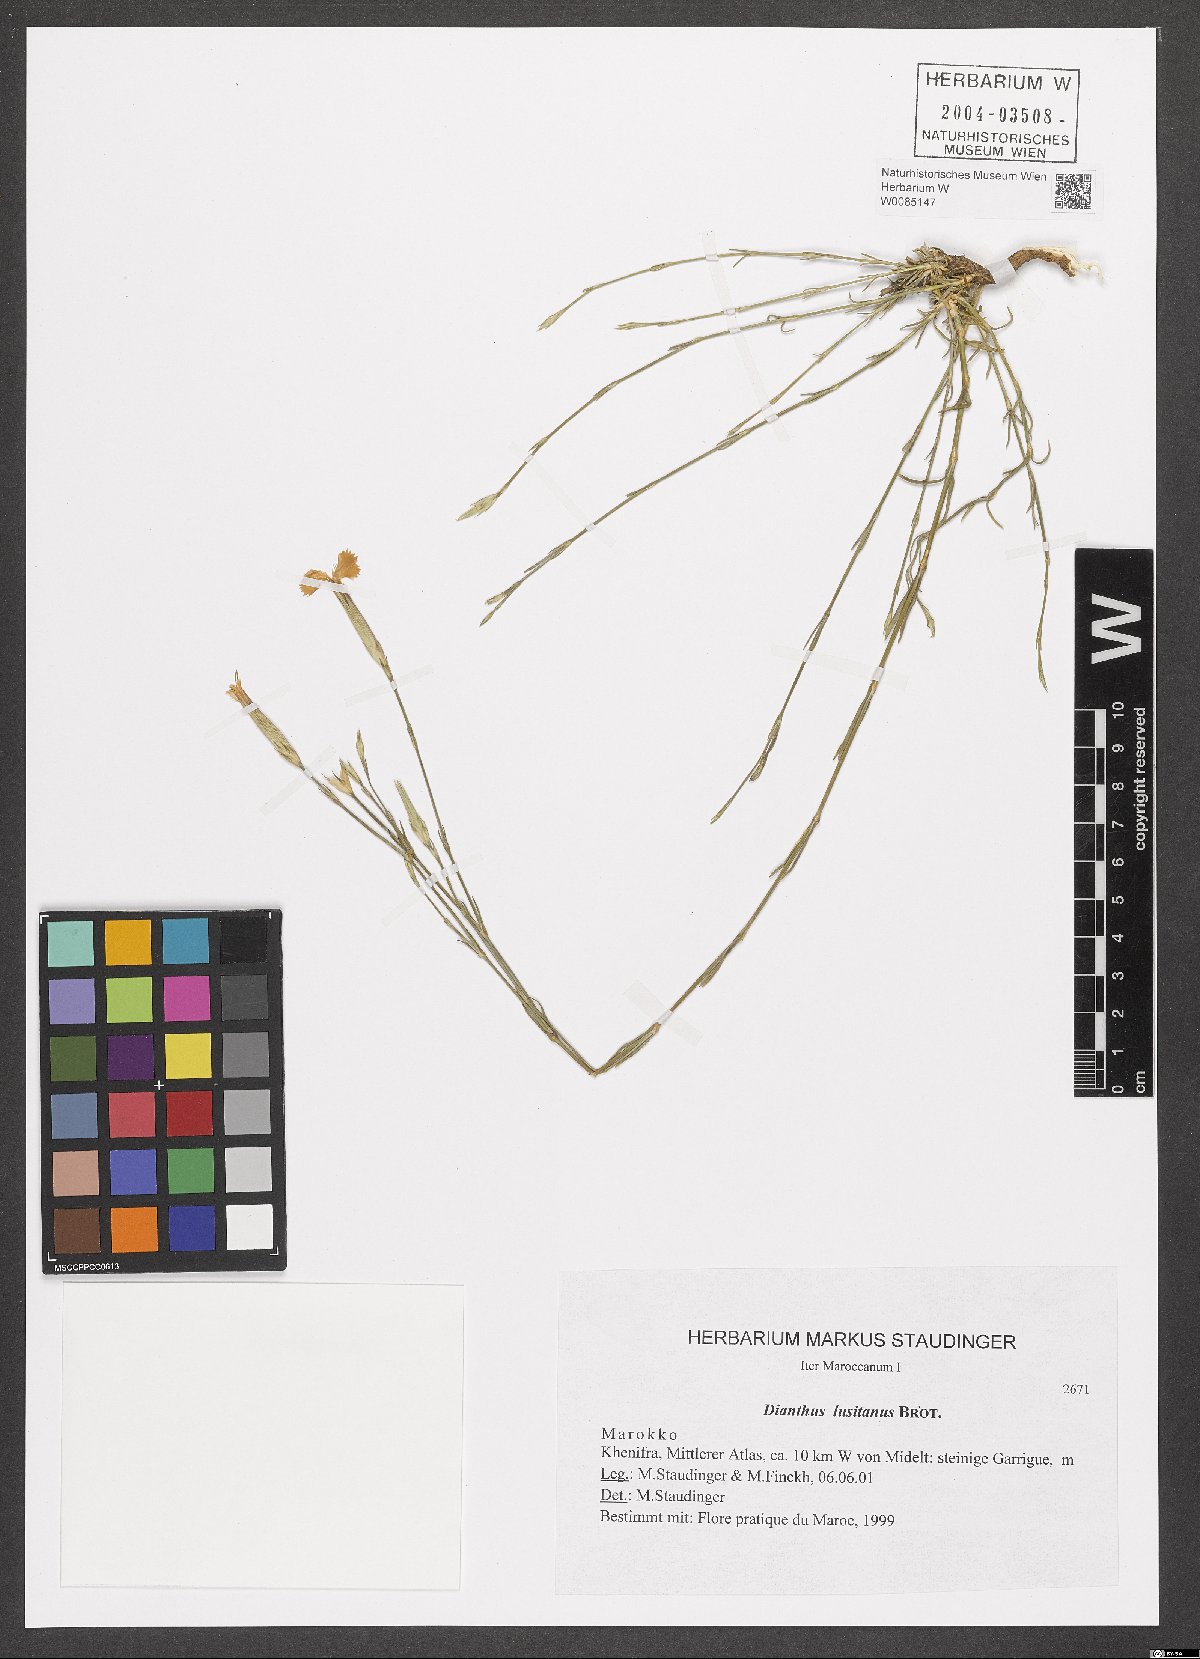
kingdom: Plantae
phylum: Tracheophyta
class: Magnoliopsida
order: Caryophyllales
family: Caryophyllaceae
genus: Dianthus
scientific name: Dianthus lusitanus
